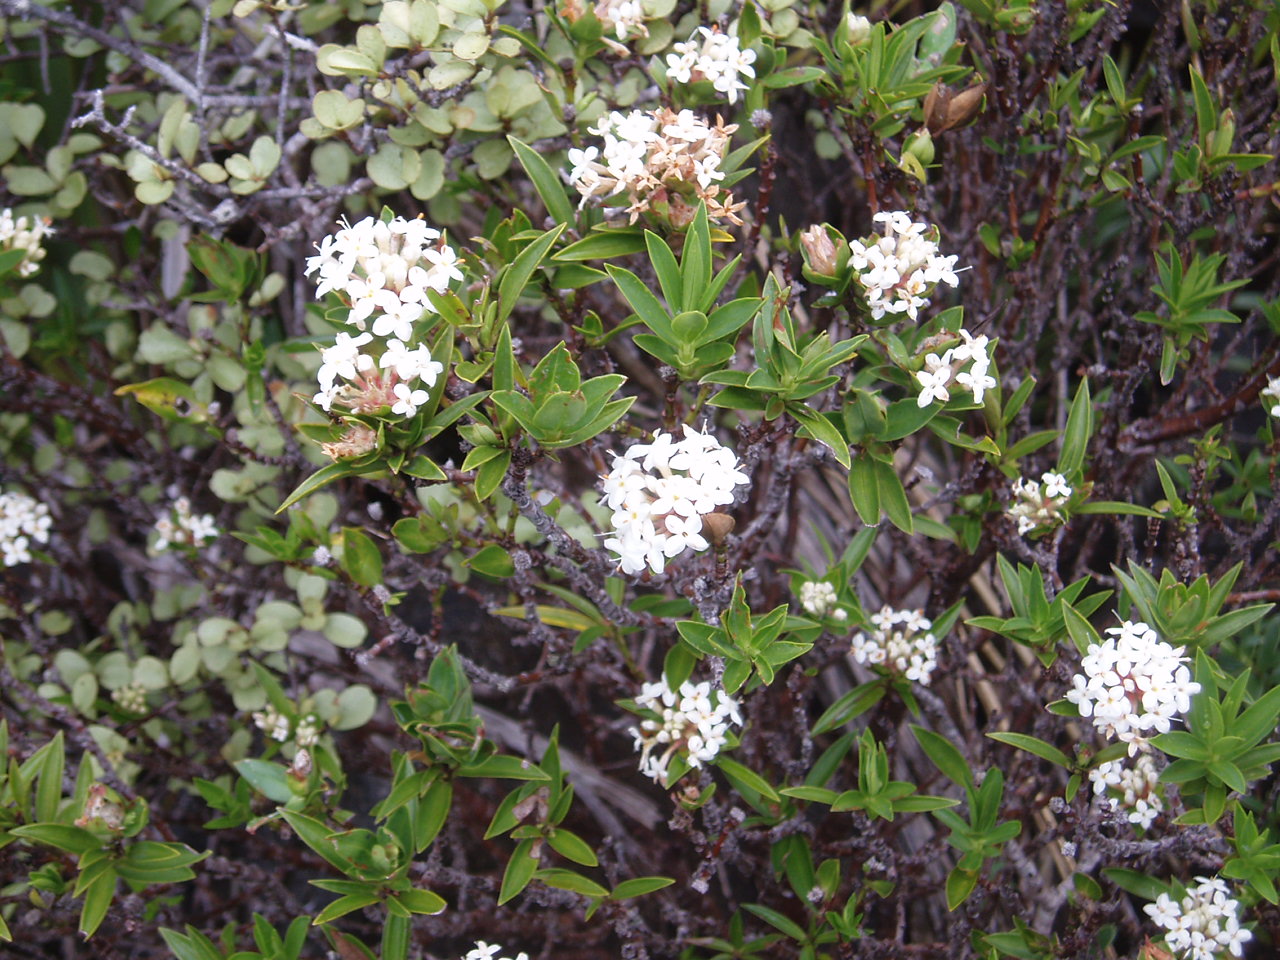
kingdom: Plantae
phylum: Tracheophyta
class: Magnoliopsida
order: Malvales
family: Thymelaeaceae
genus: Pimelea
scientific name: Pimelea longifolia
